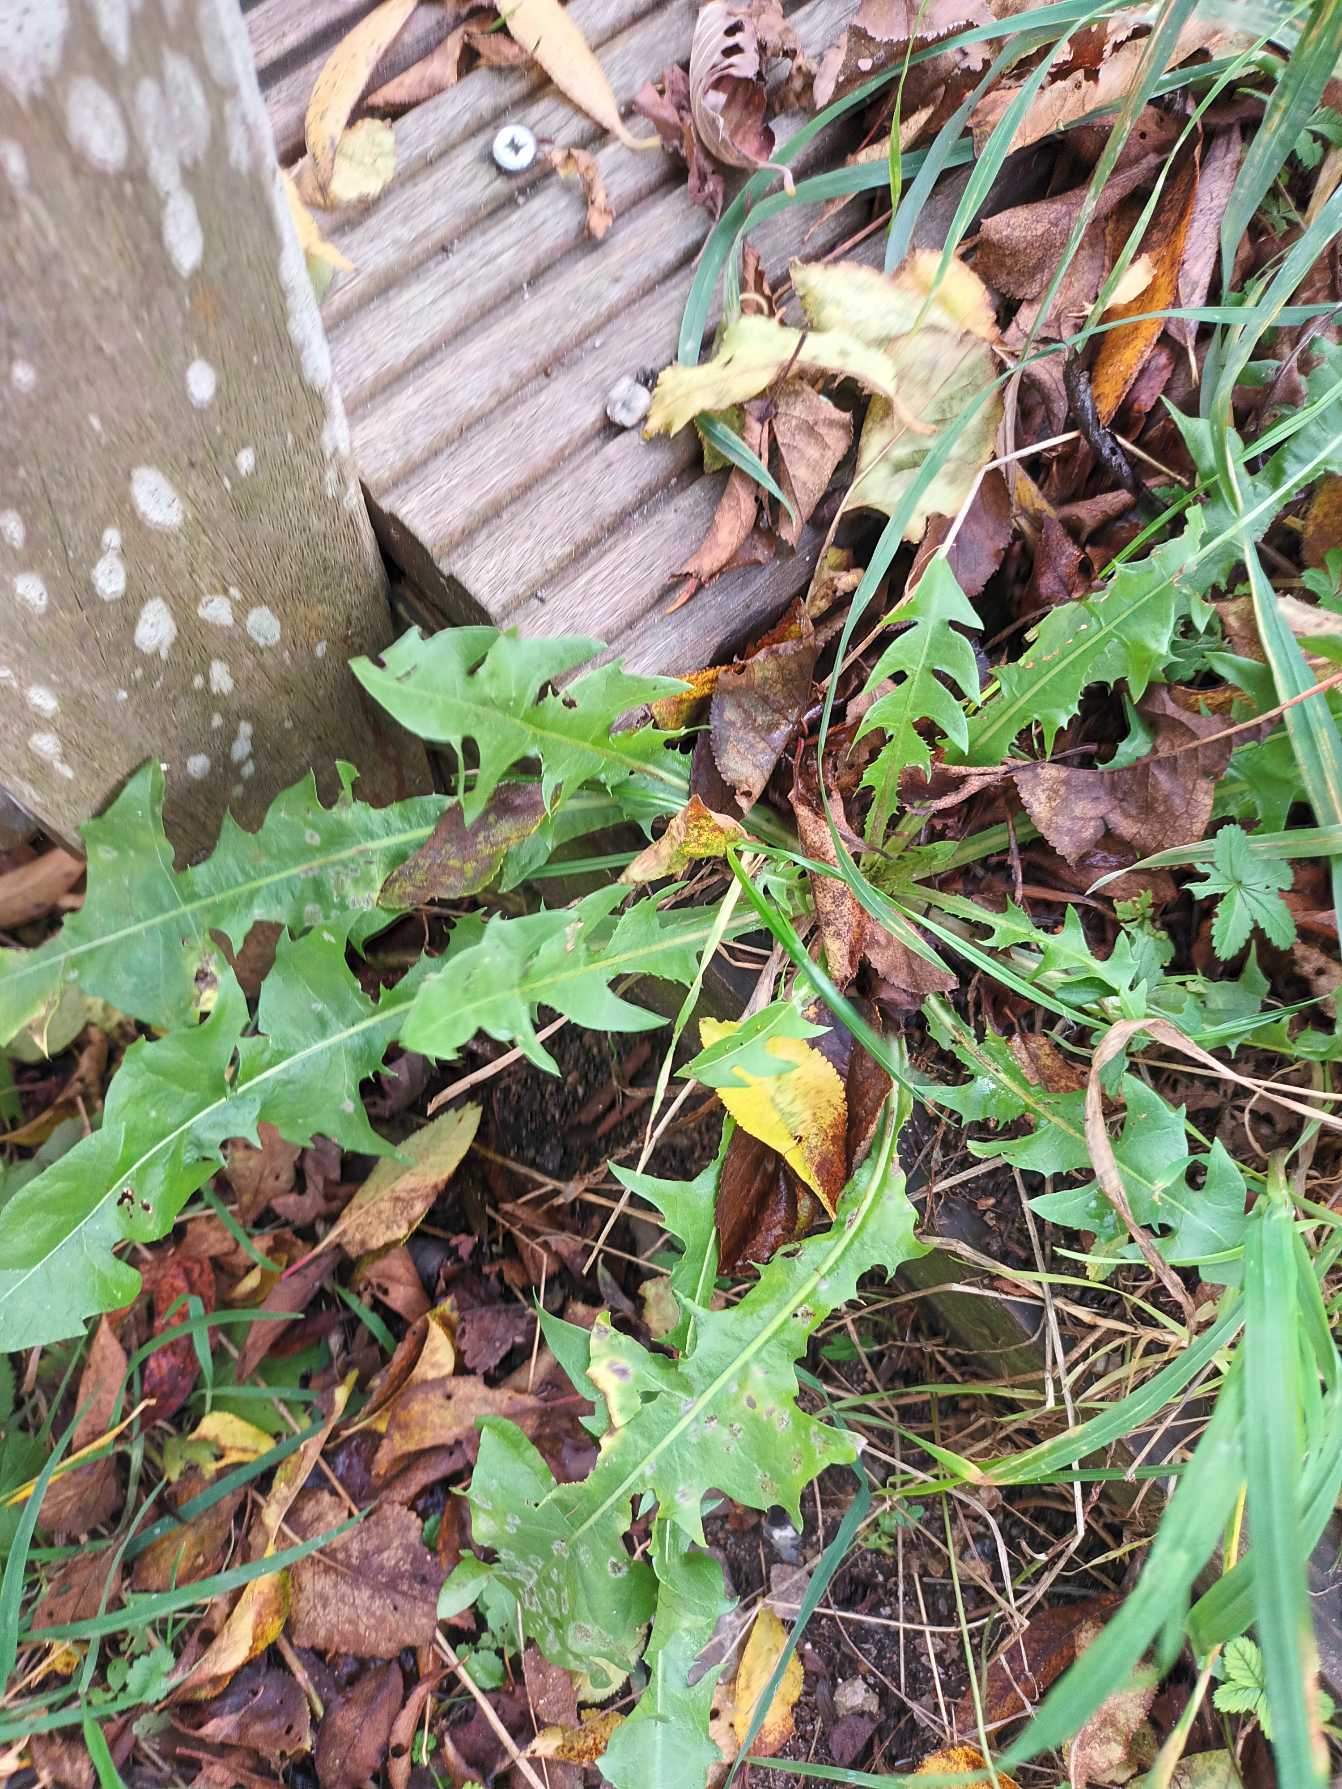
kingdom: Plantae
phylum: Tracheophyta
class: Magnoliopsida
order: Asterales
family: Asteraceae
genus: Taraxacum
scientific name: Taraxacum
